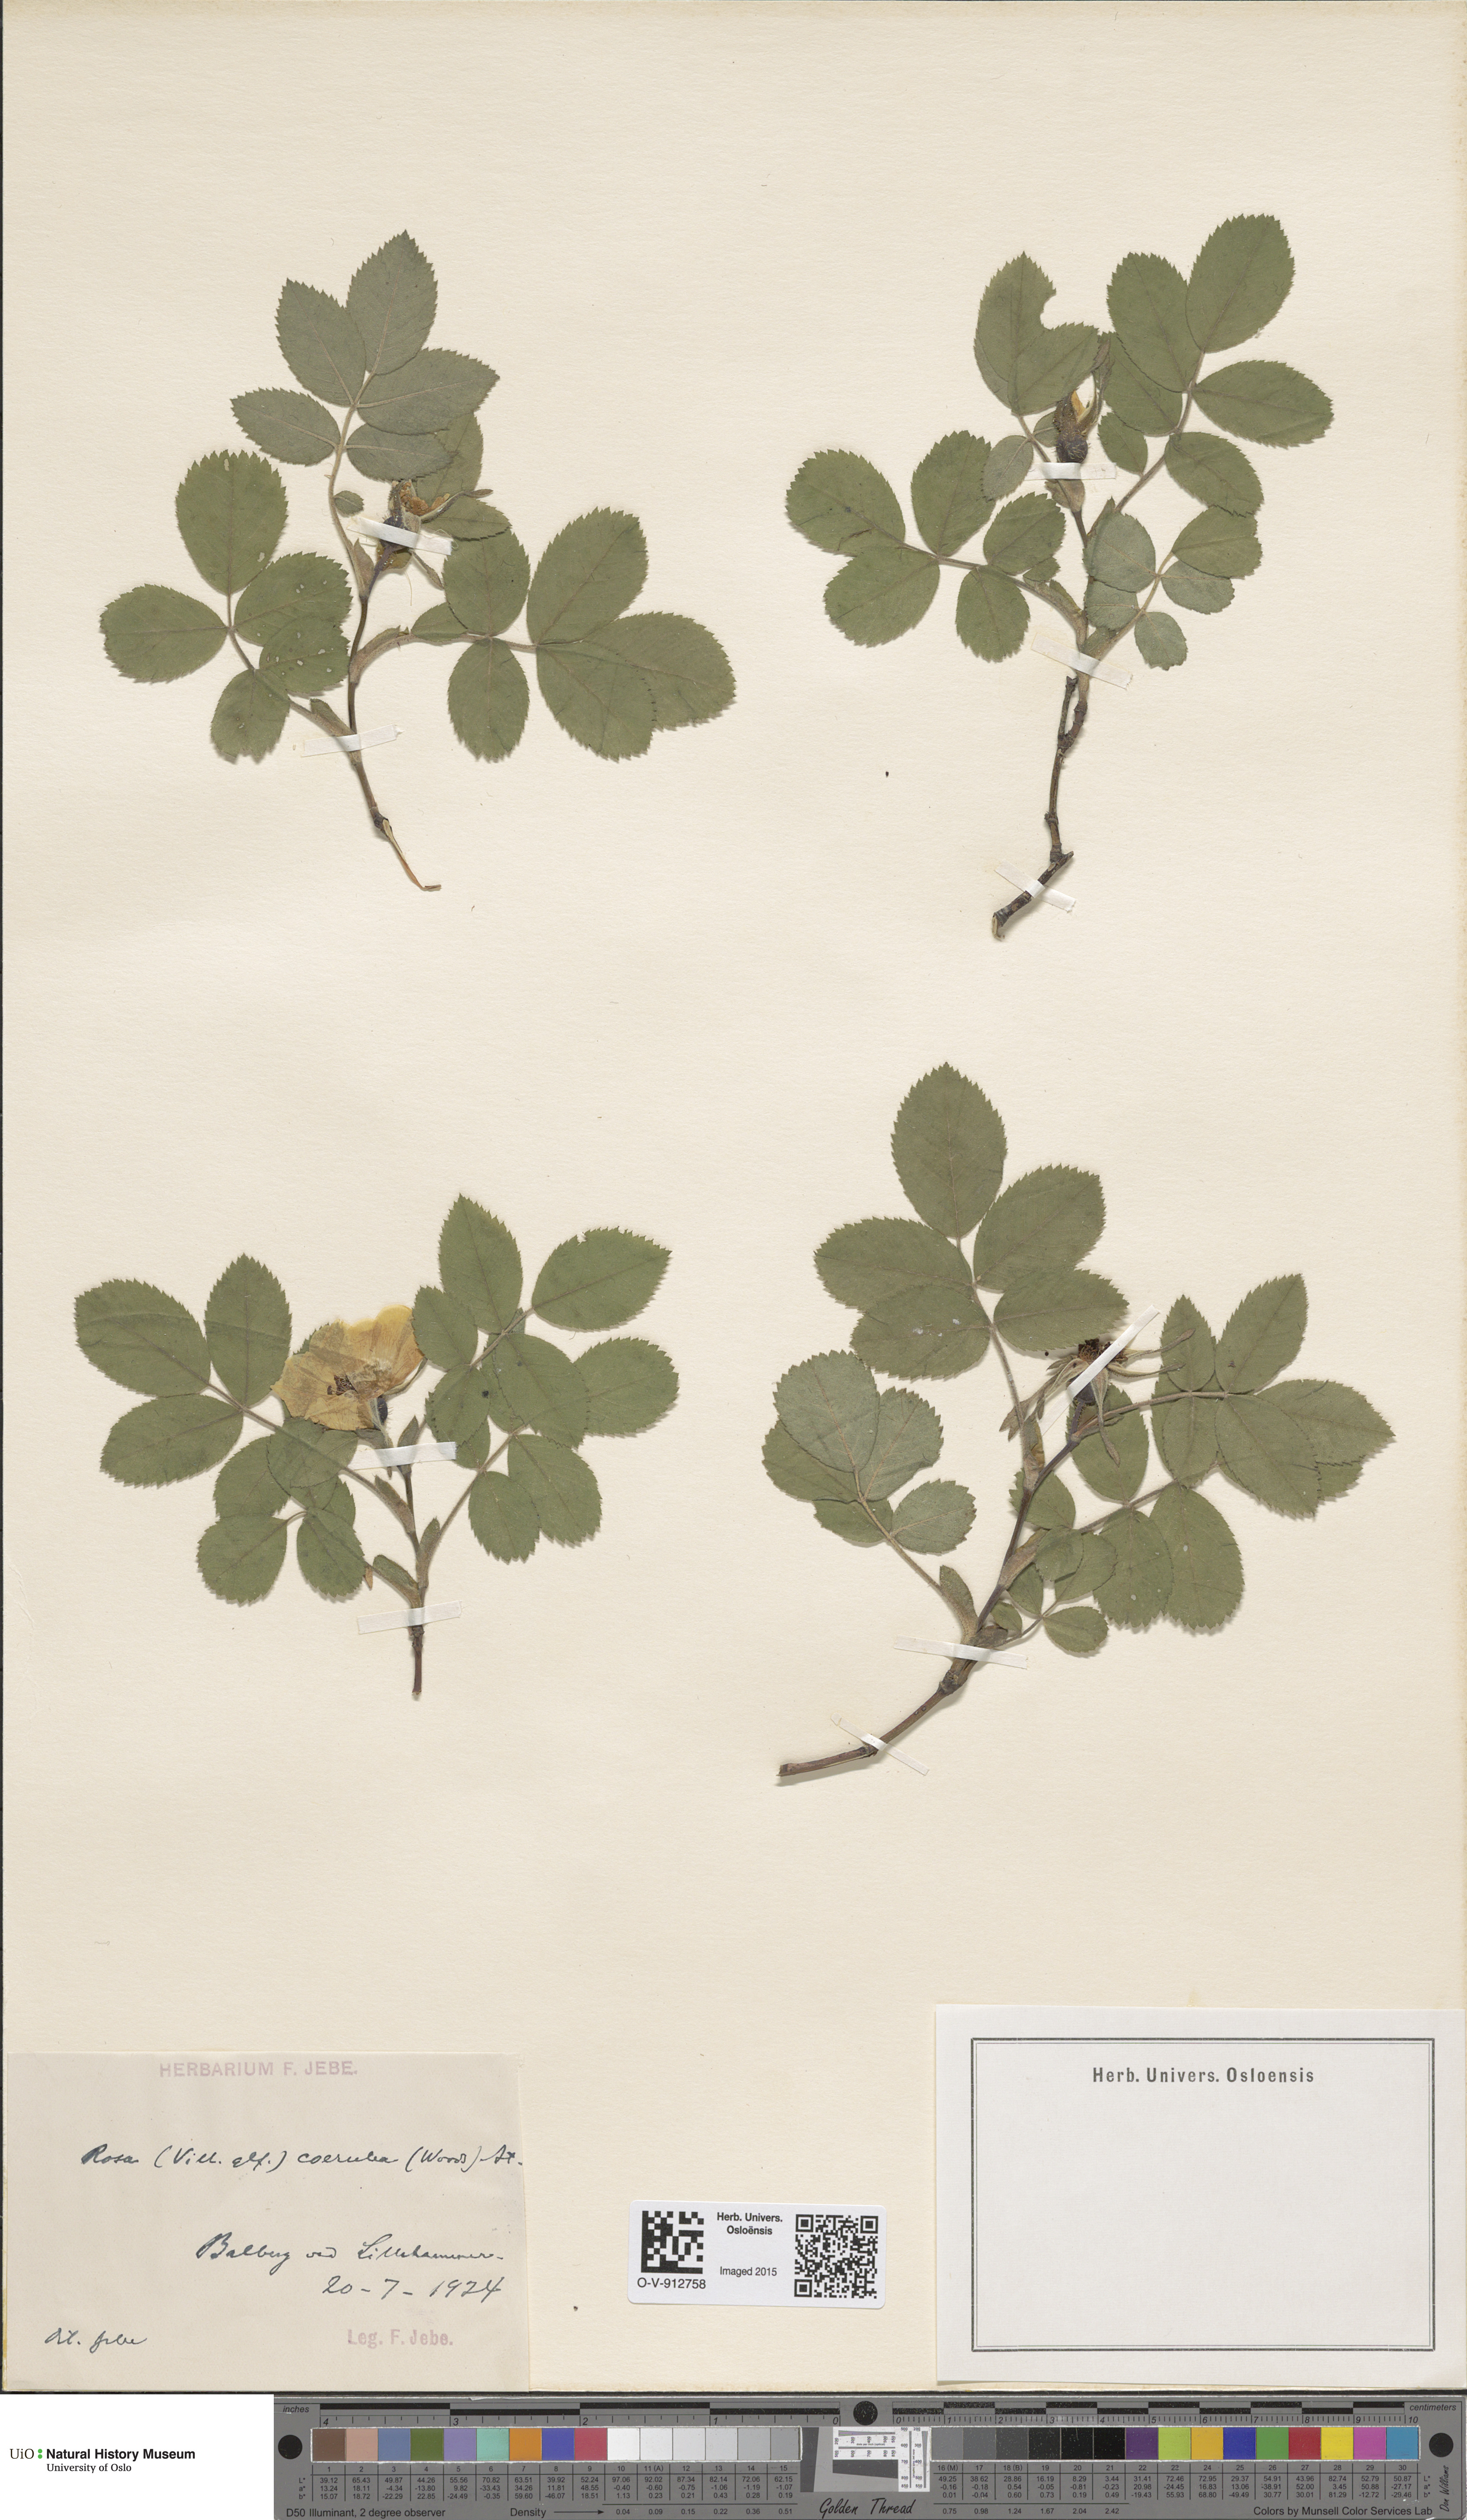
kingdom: Plantae
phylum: Tracheophyta
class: Magnoliopsida
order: Rosales
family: Rosaceae
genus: Rosa
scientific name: Rosa mollis
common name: Rose
